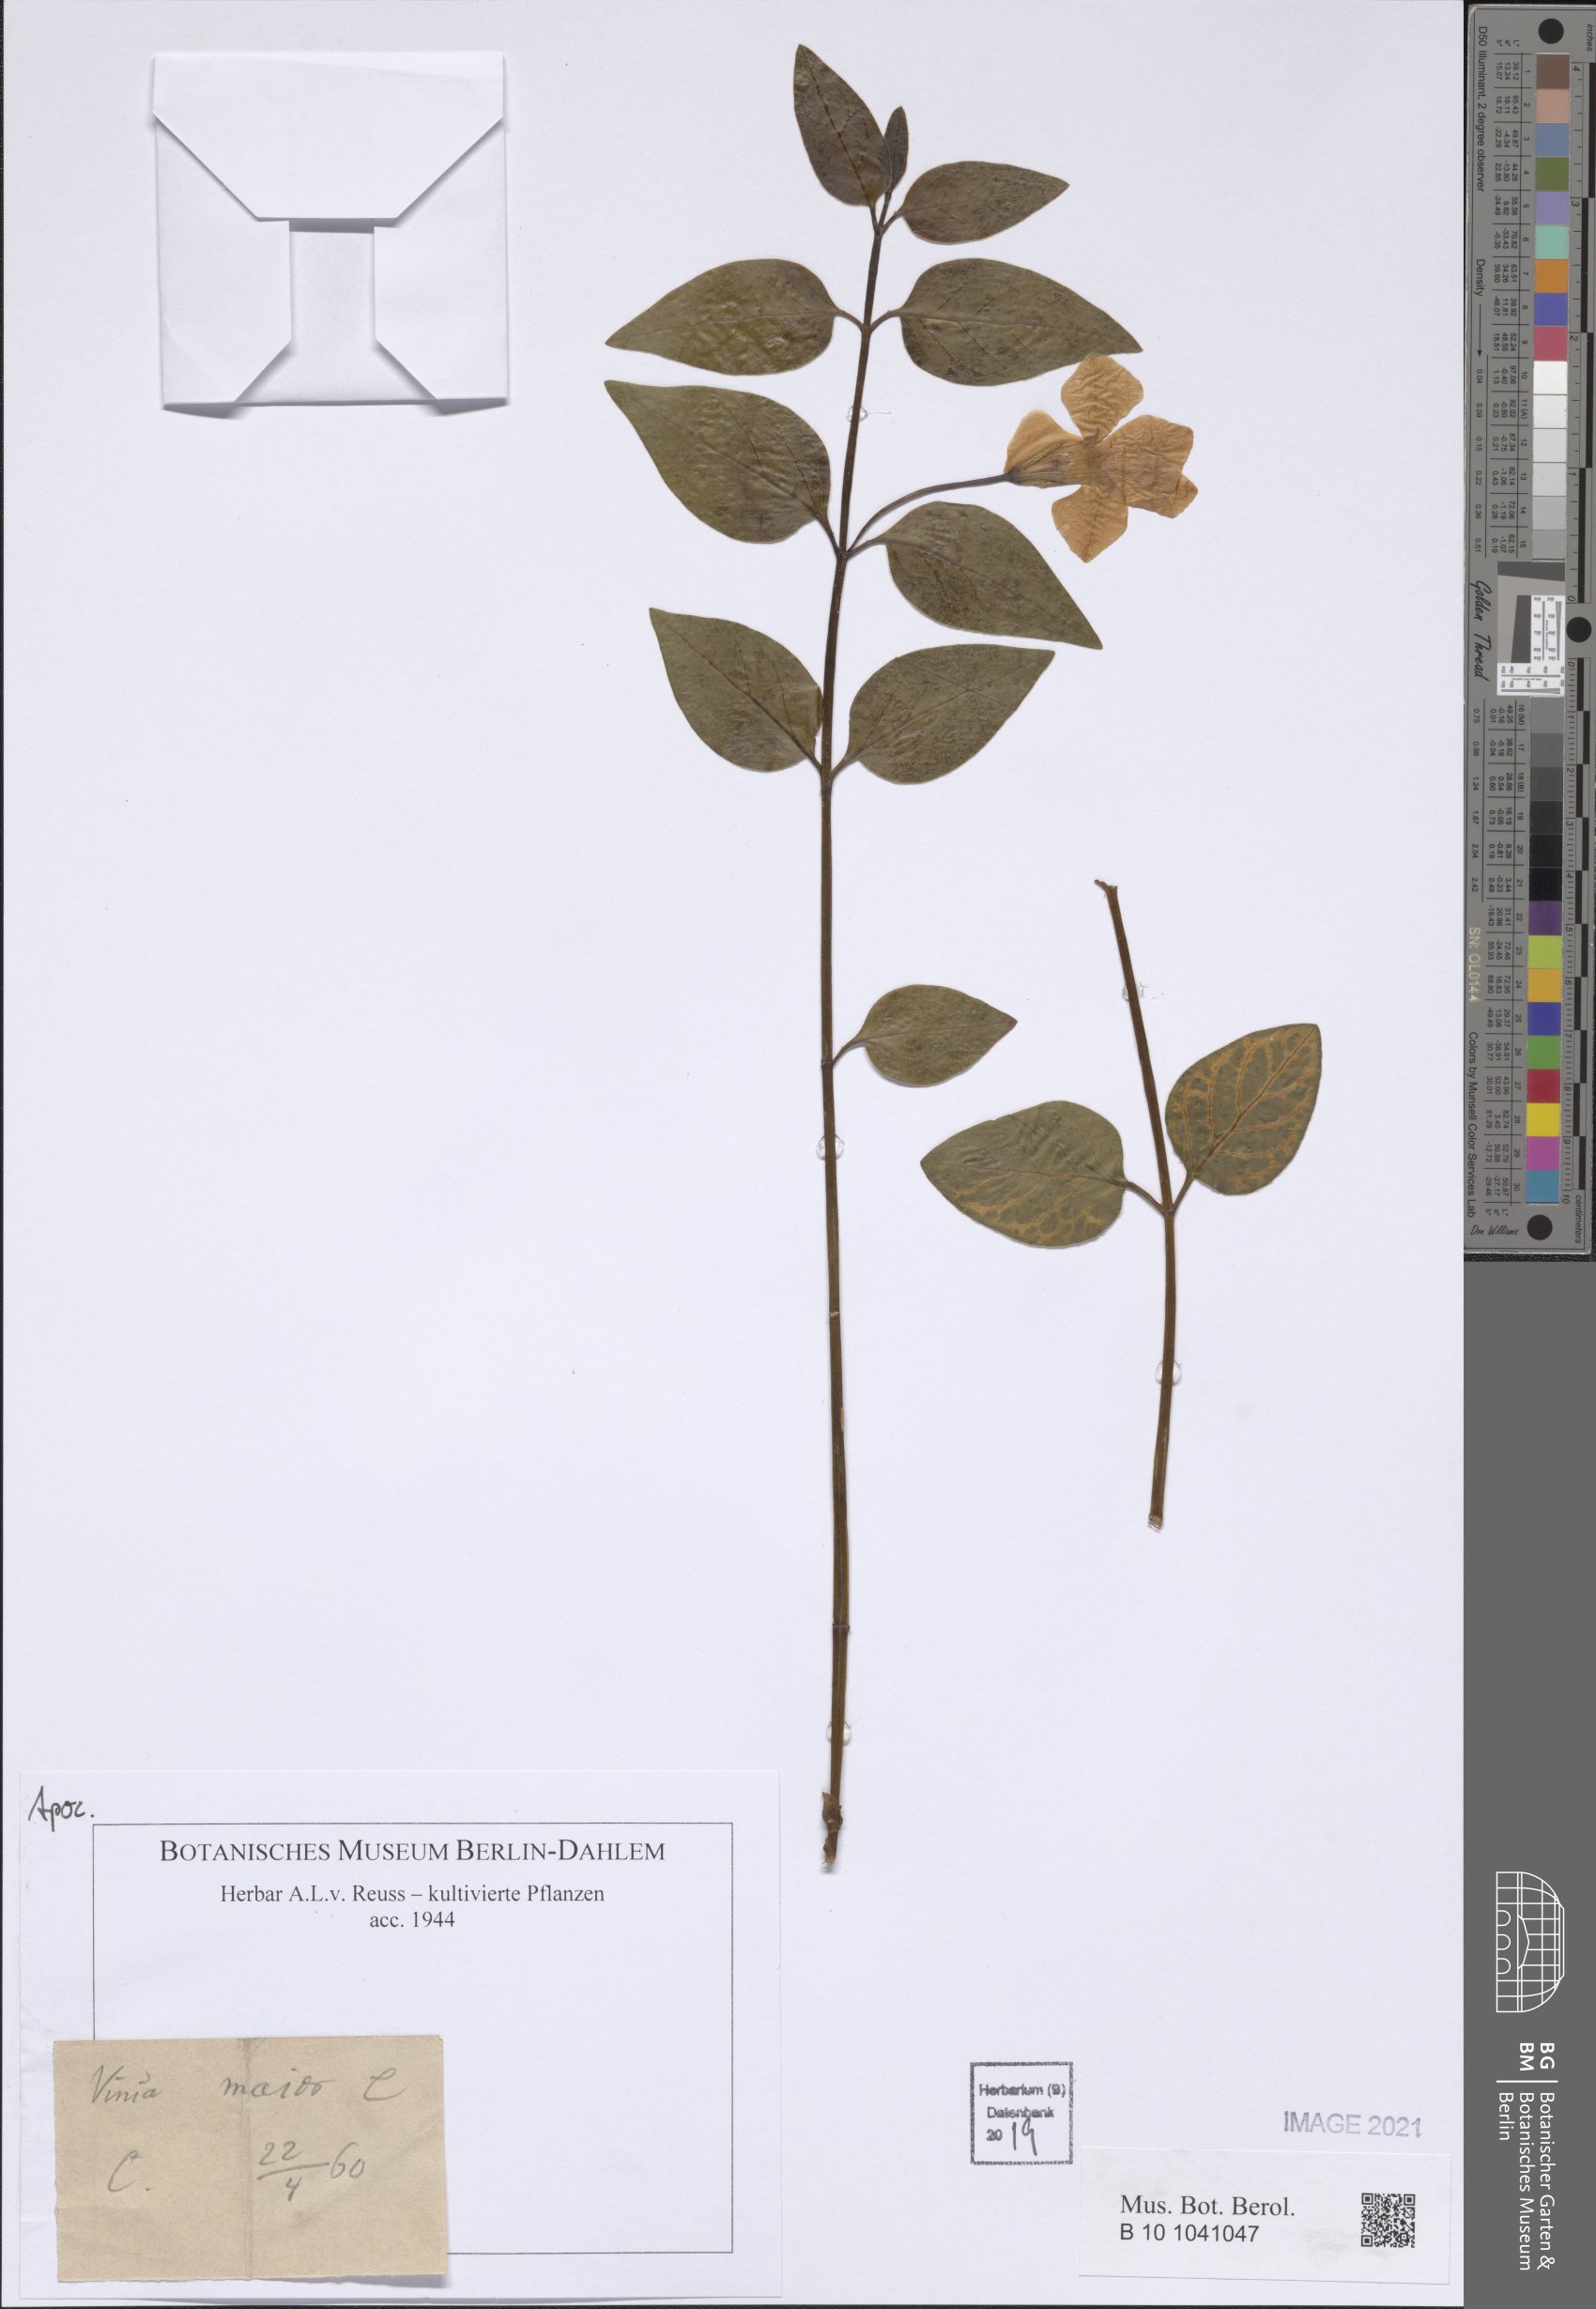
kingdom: Plantae
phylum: Tracheophyta
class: Magnoliopsida
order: Gentianales
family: Apocynaceae
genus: Vinca
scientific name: Vinca major
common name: Greater periwinkle
